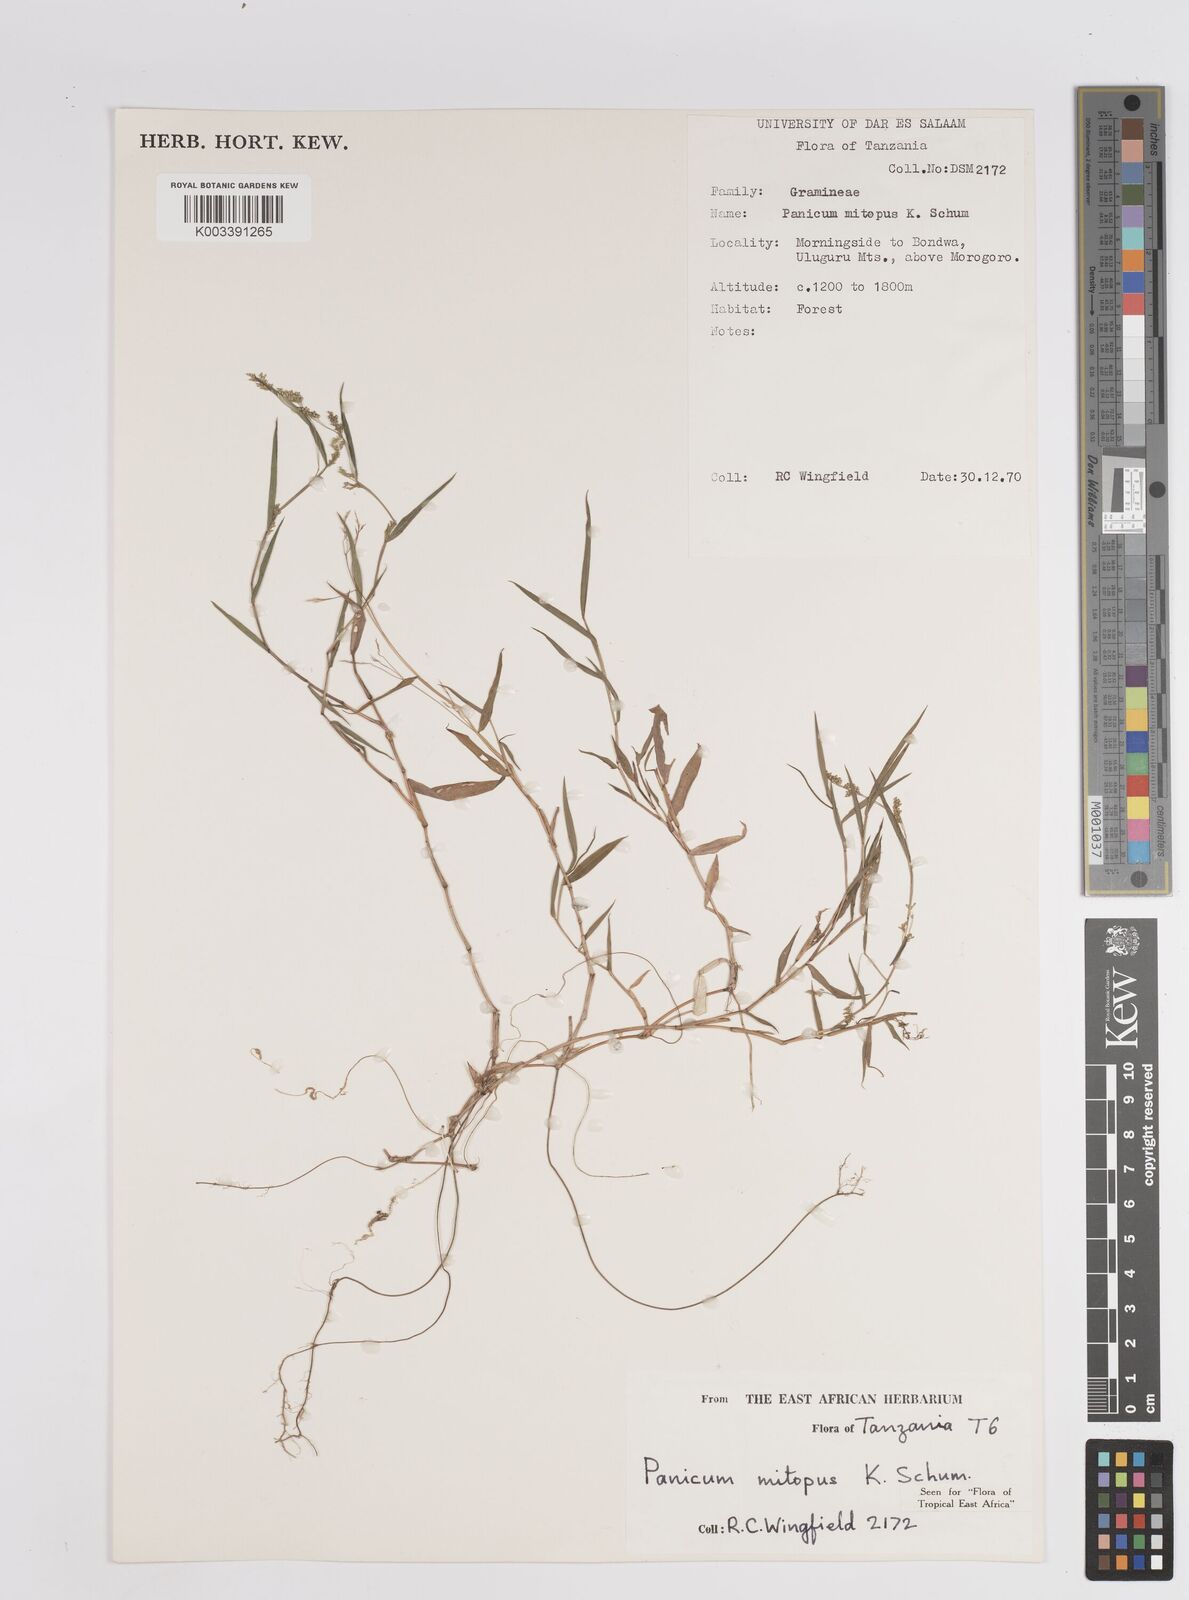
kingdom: Plantae
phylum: Tracheophyta
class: Liliopsida
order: Poales
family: Poaceae
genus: Panicum
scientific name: Panicum mitopus
